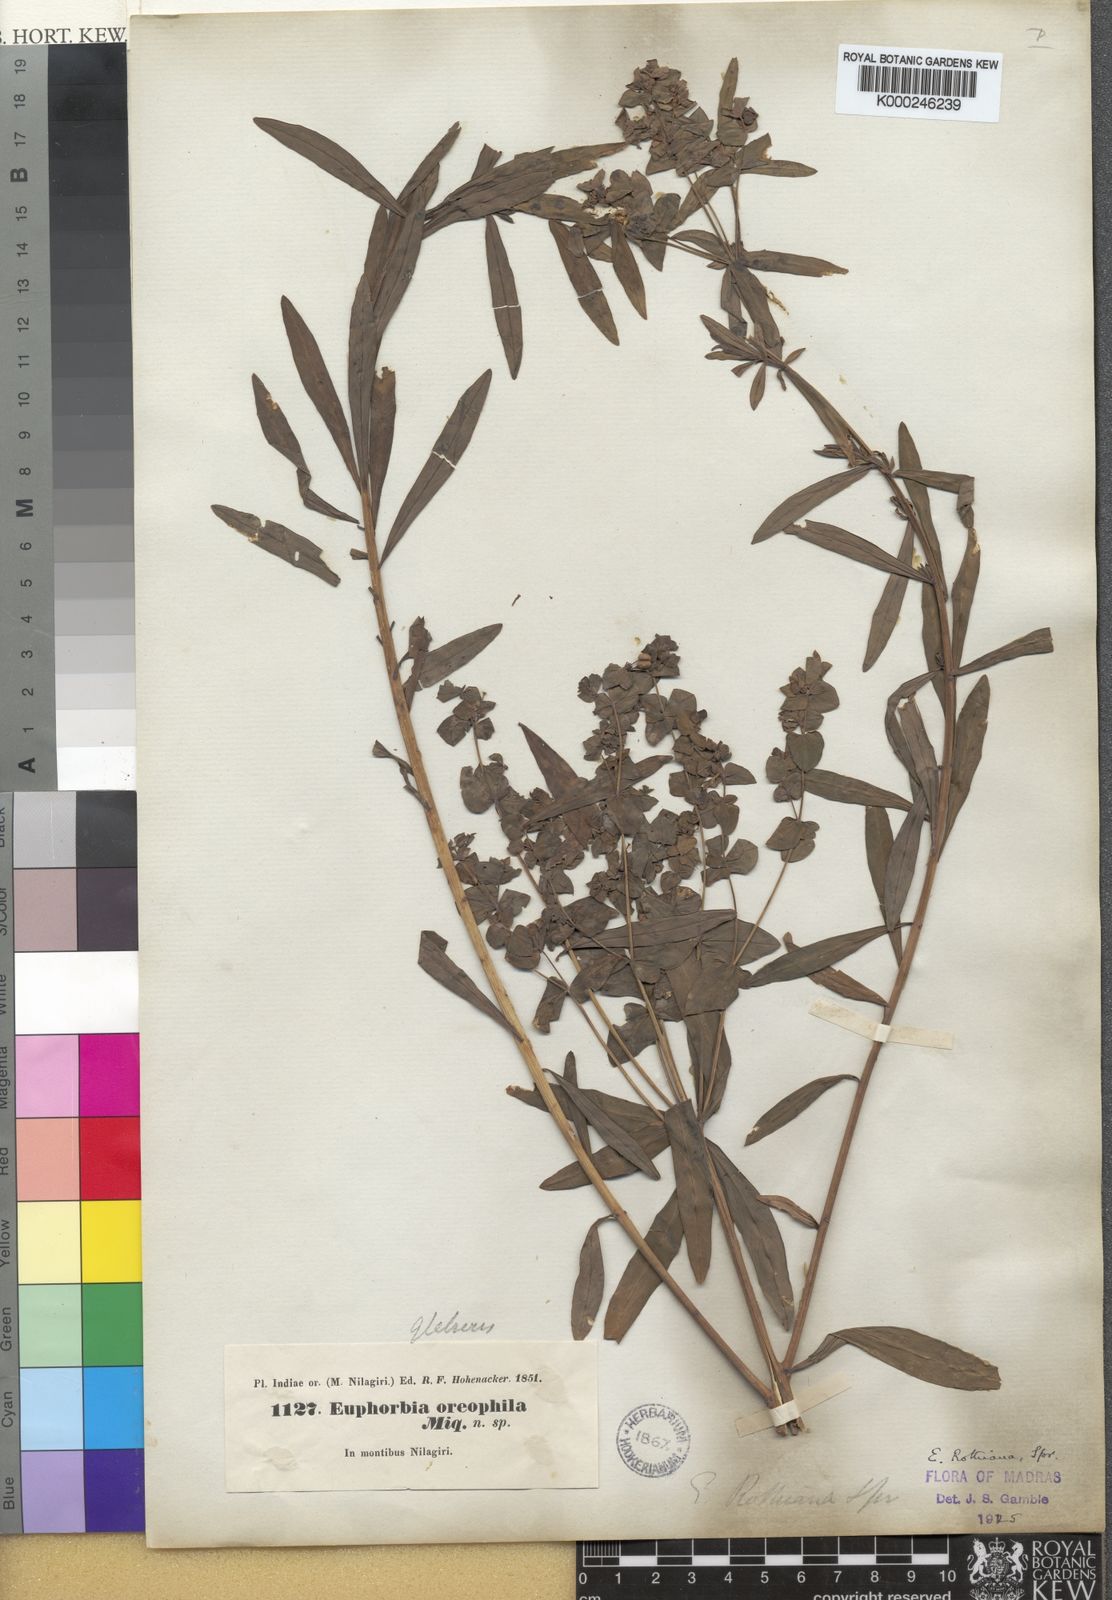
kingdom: Plantae
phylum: Tracheophyta
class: Magnoliopsida
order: Malpighiales
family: Euphorbiaceae
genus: Euphorbia
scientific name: Euphorbia rothiana
